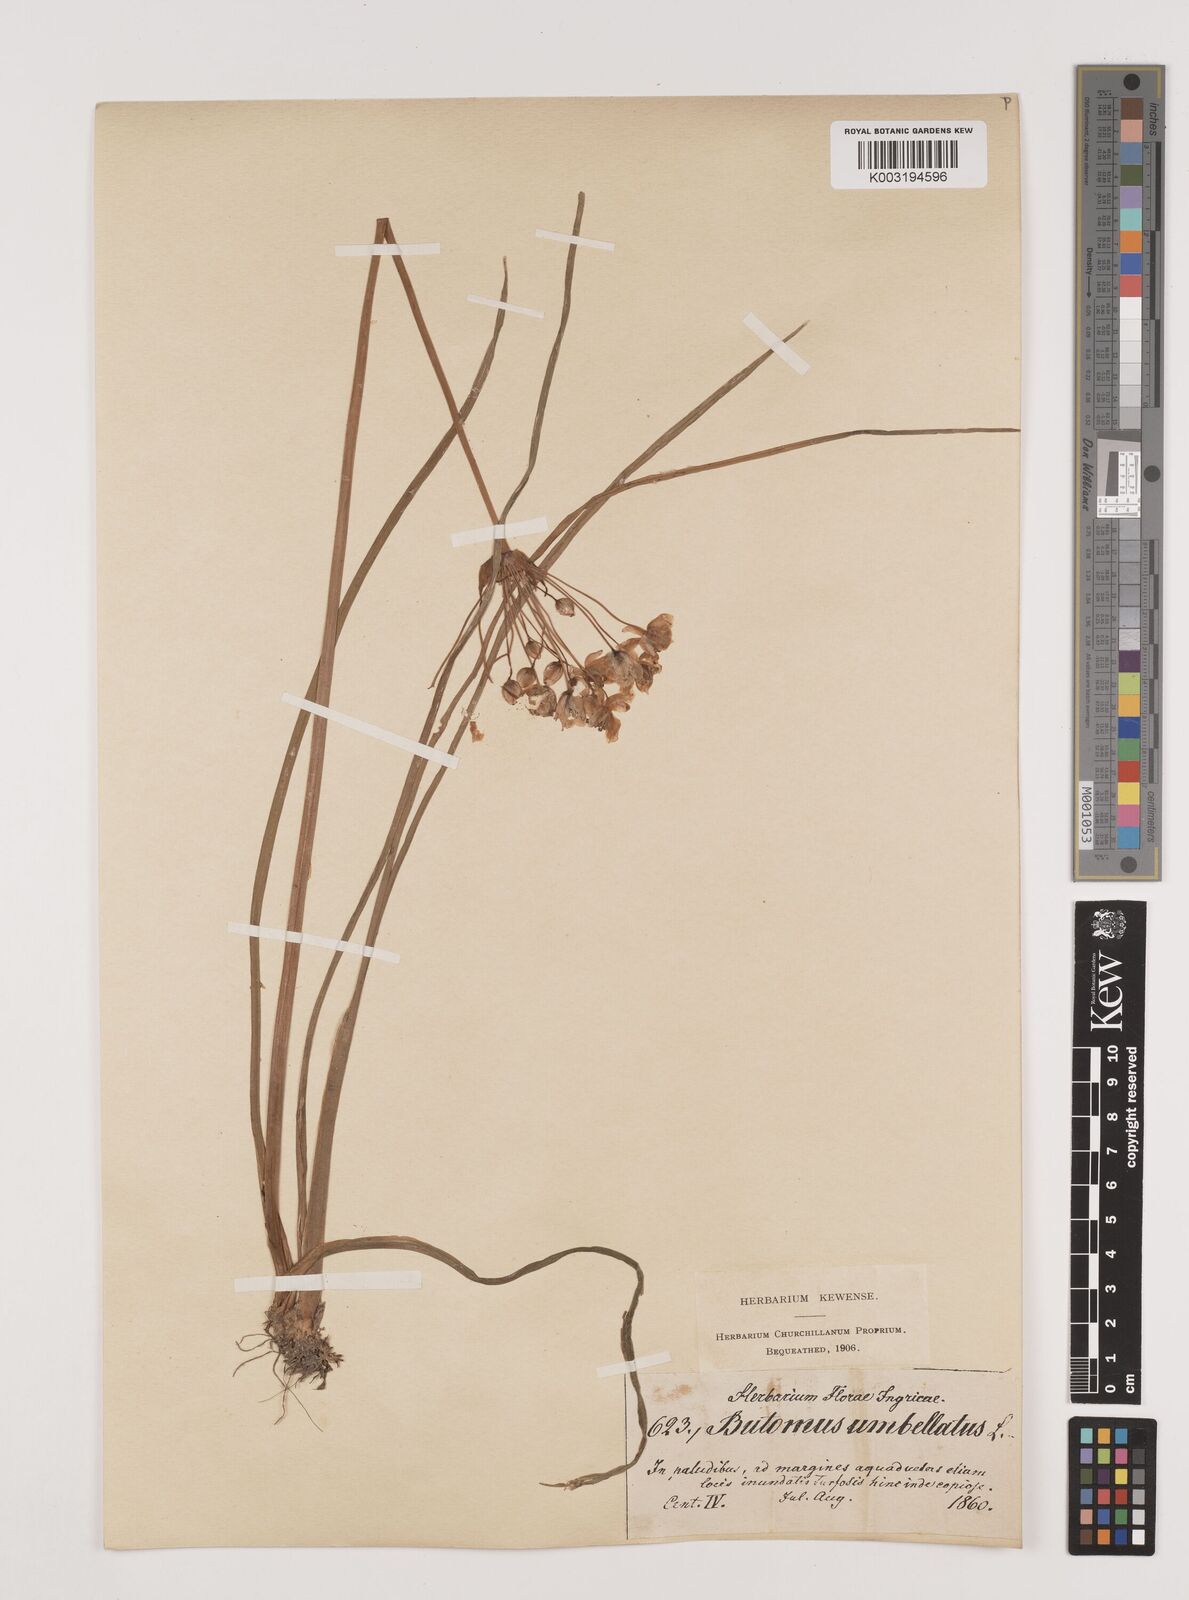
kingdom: Plantae
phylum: Tracheophyta
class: Liliopsida
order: Alismatales
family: Butomaceae
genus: Butomus
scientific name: Butomus umbellatus
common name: Flowering-rush
